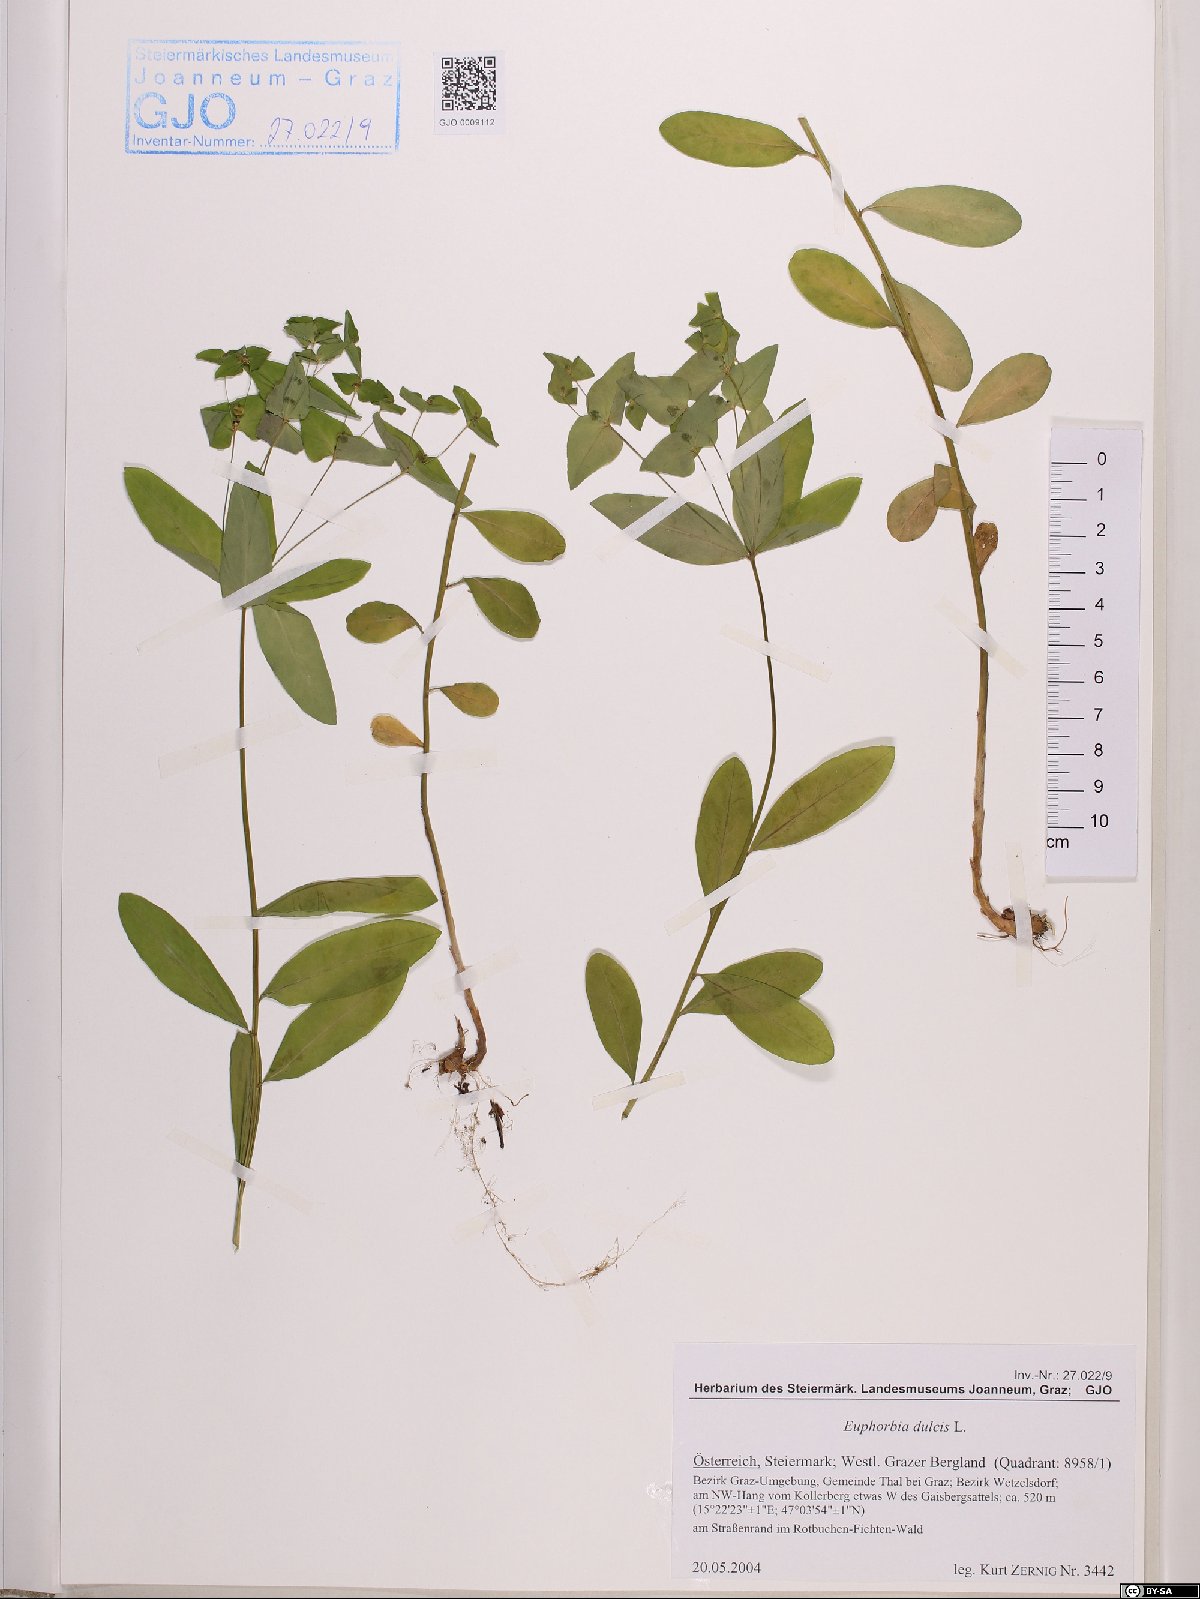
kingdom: Plantae
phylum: Tracheophyta
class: Magnoliopsida
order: Malpighiales
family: Euphorbiaceae
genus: Euphorbia
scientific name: Euphorbia dulcis
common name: Sweet spurge
